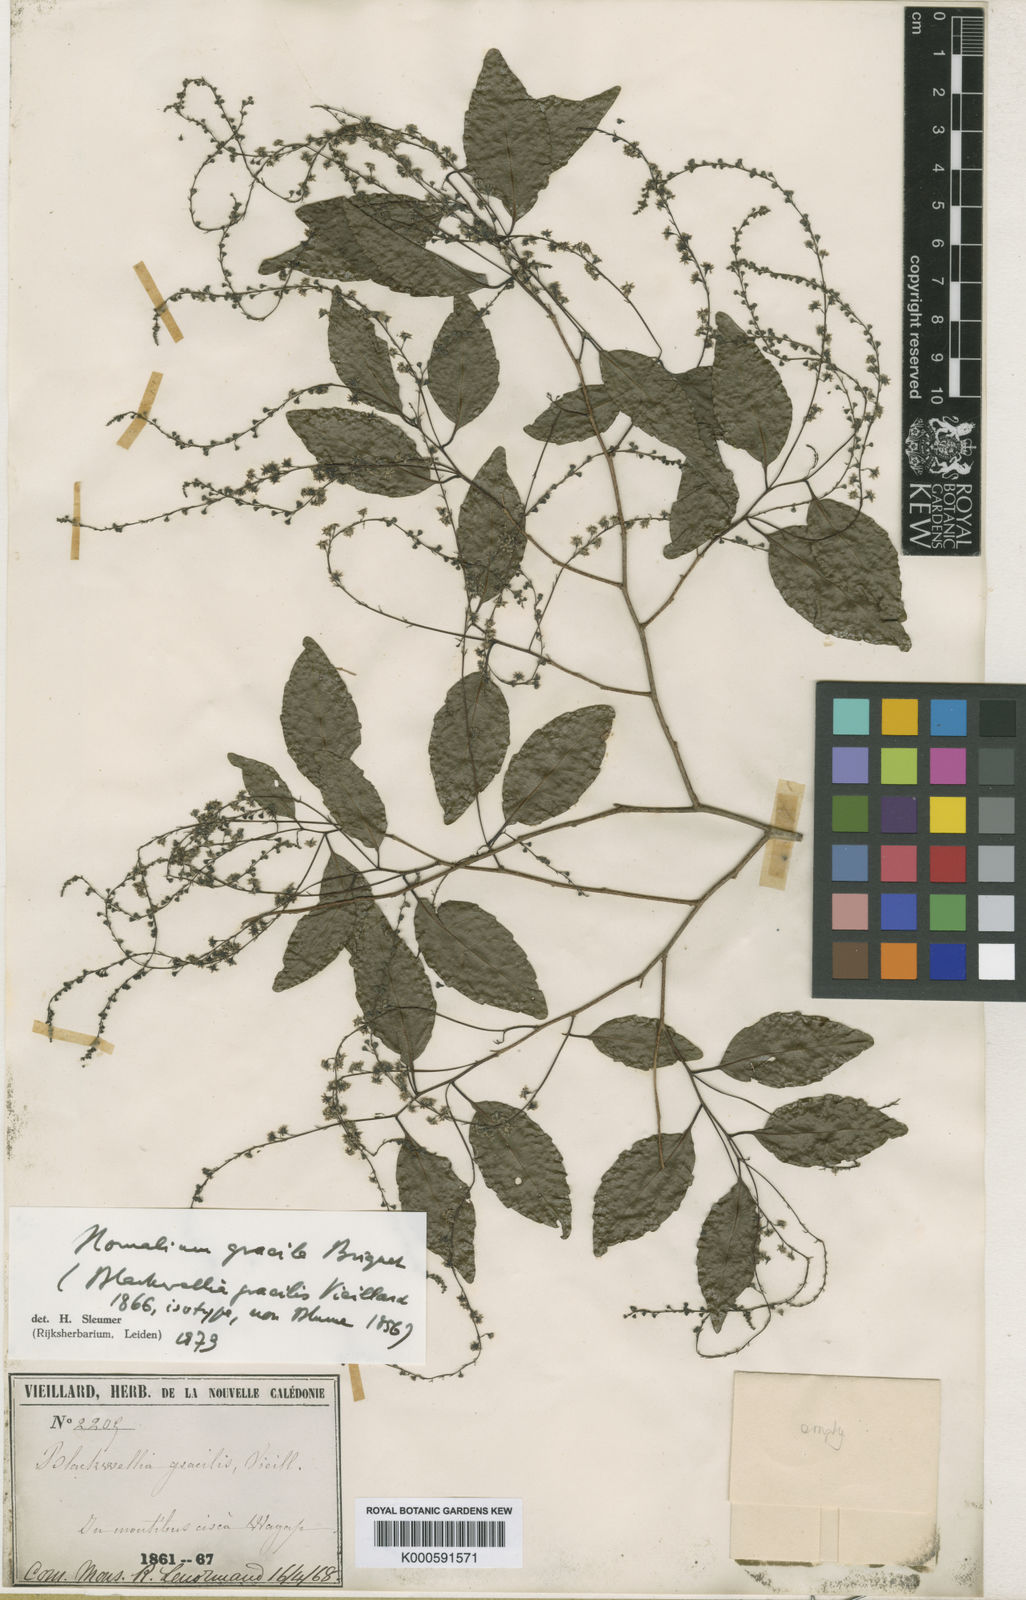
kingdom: Plantae
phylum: Tracheophyta
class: Magnoliopsida
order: Malpighiales
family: Salicaceae
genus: Homalium
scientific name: Homalium rivulare
